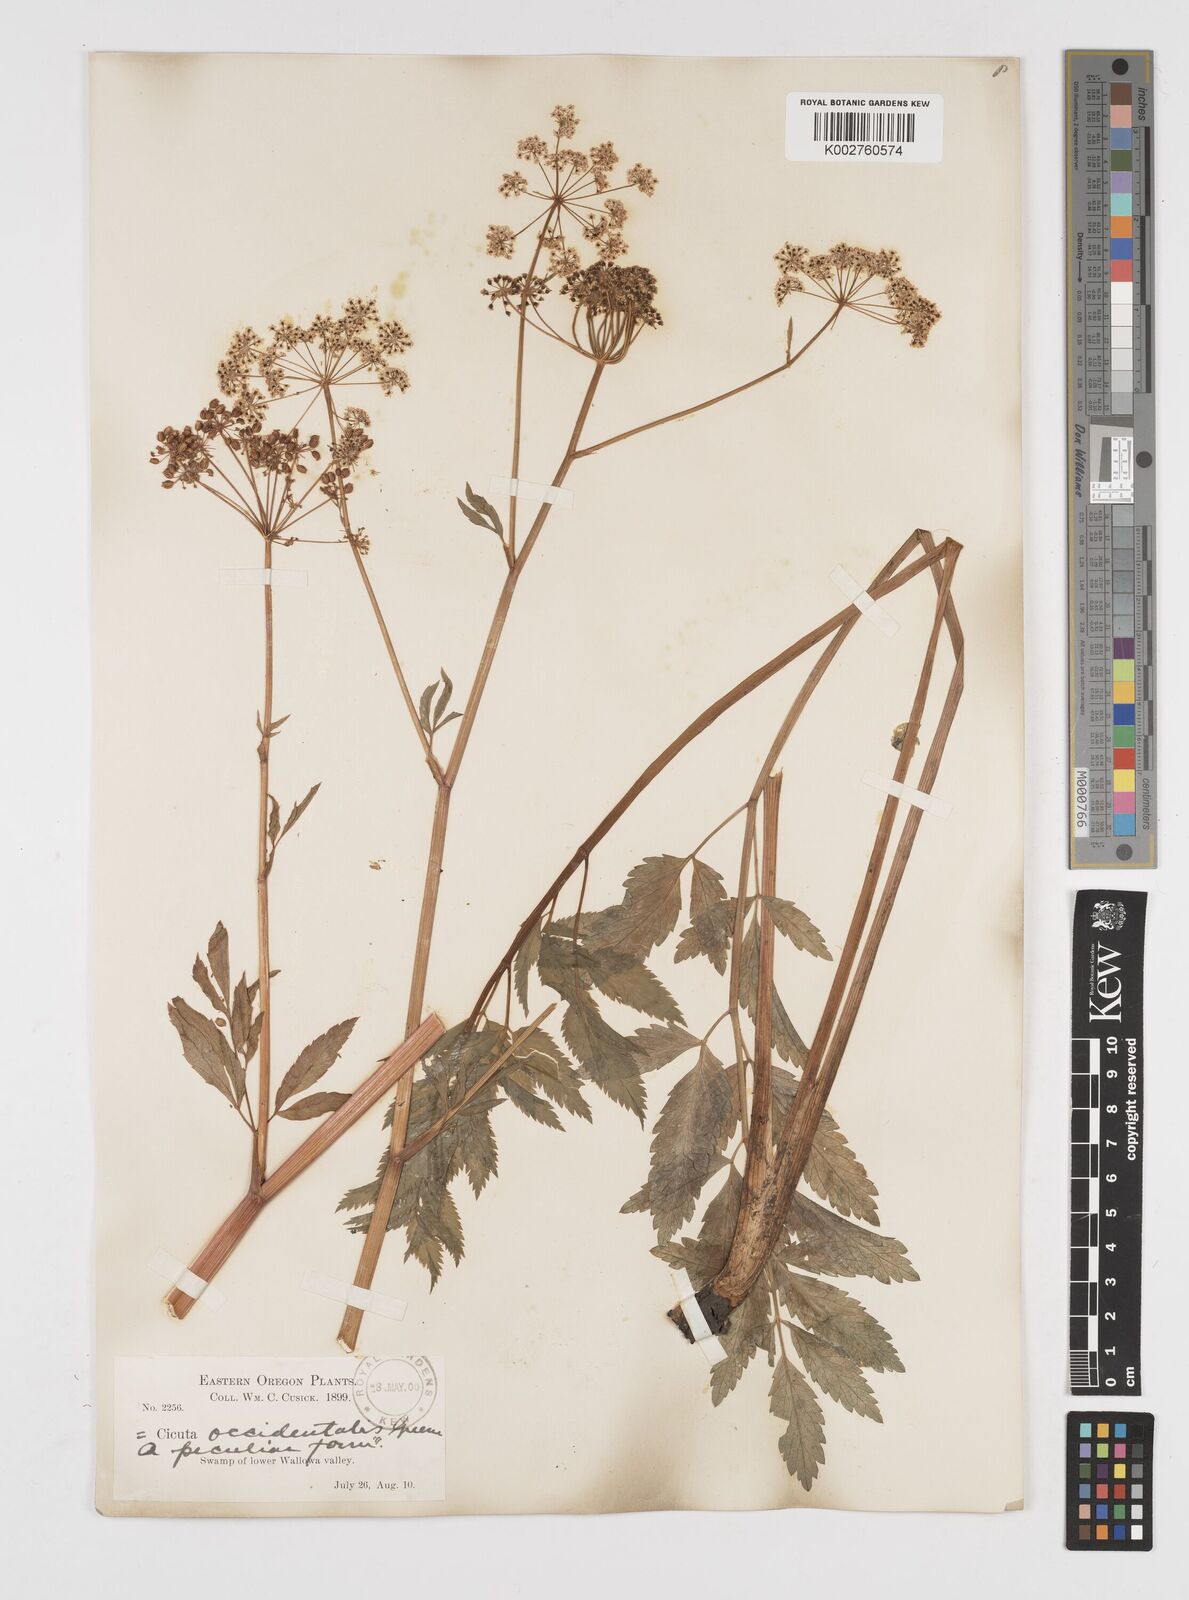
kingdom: Plantae
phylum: Tracheophyta
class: Magnoliopsida
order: Apiales
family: Apiaceae
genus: Cicuta
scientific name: Cicuta douglasii
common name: Western water-hemlock
